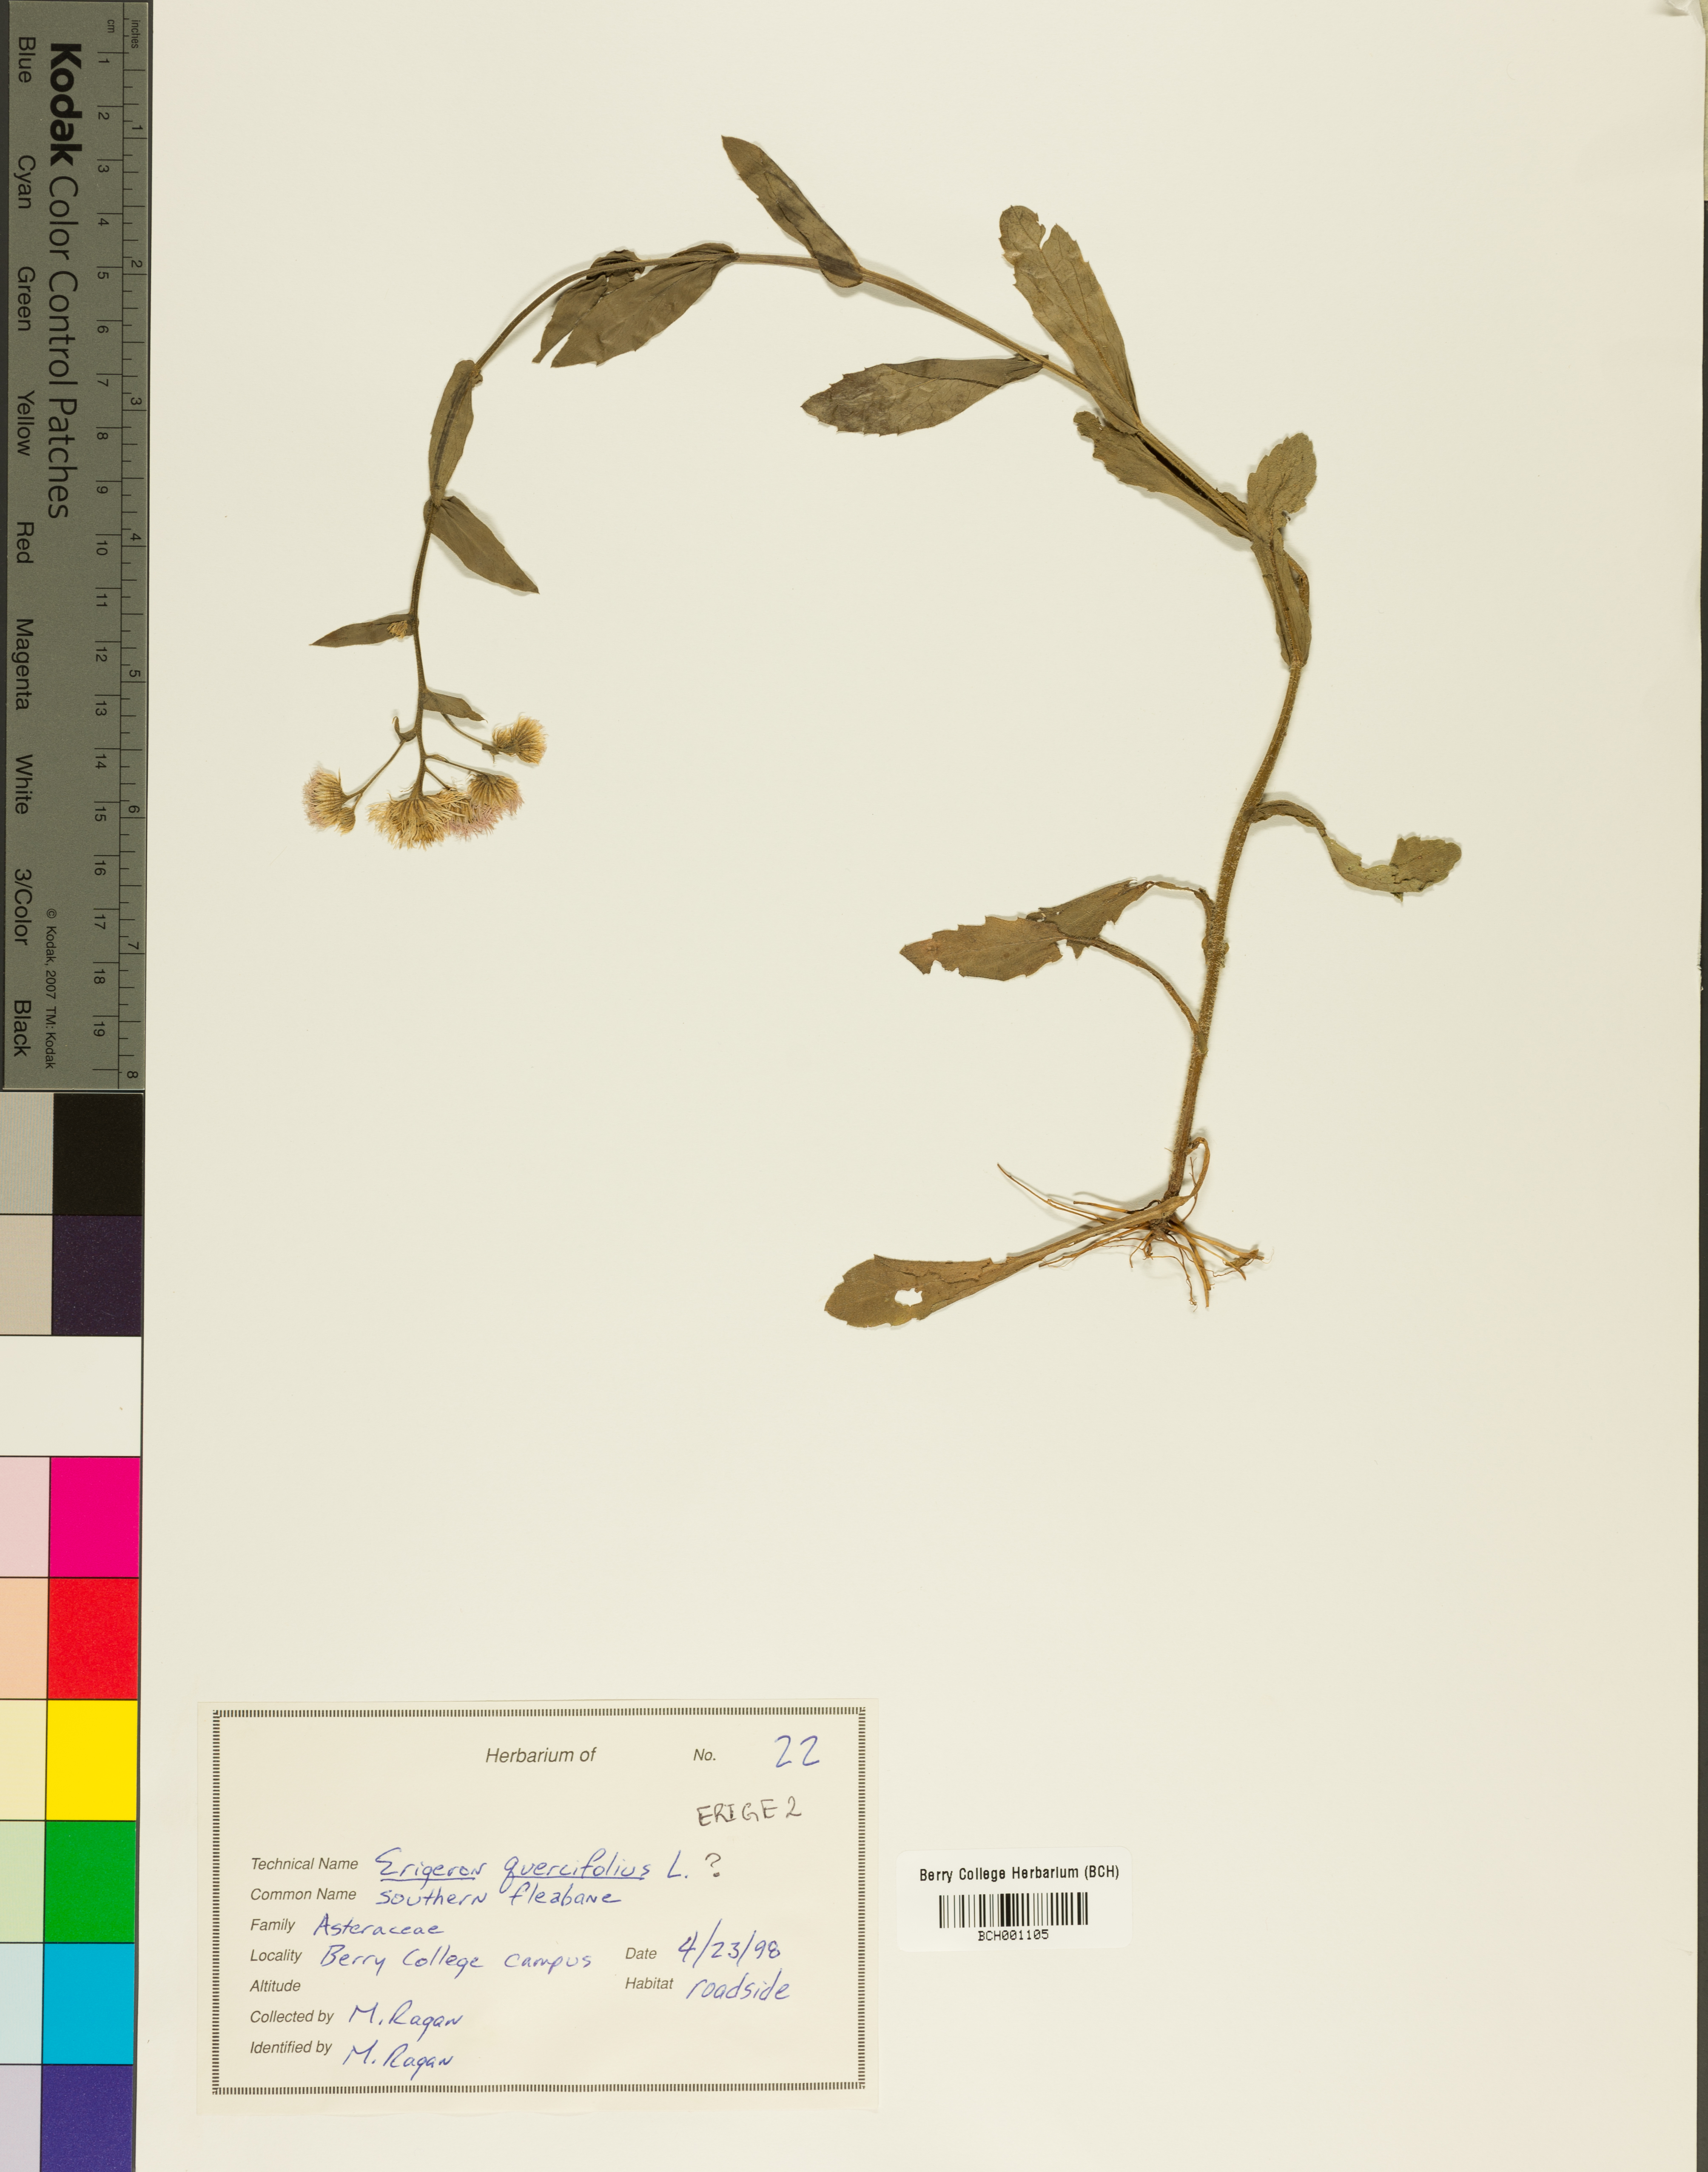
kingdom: Plantae
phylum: Tracheophyta
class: Magnoliopsida
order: Asterales
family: Asteraceae
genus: Erigeron
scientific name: Erigeron
